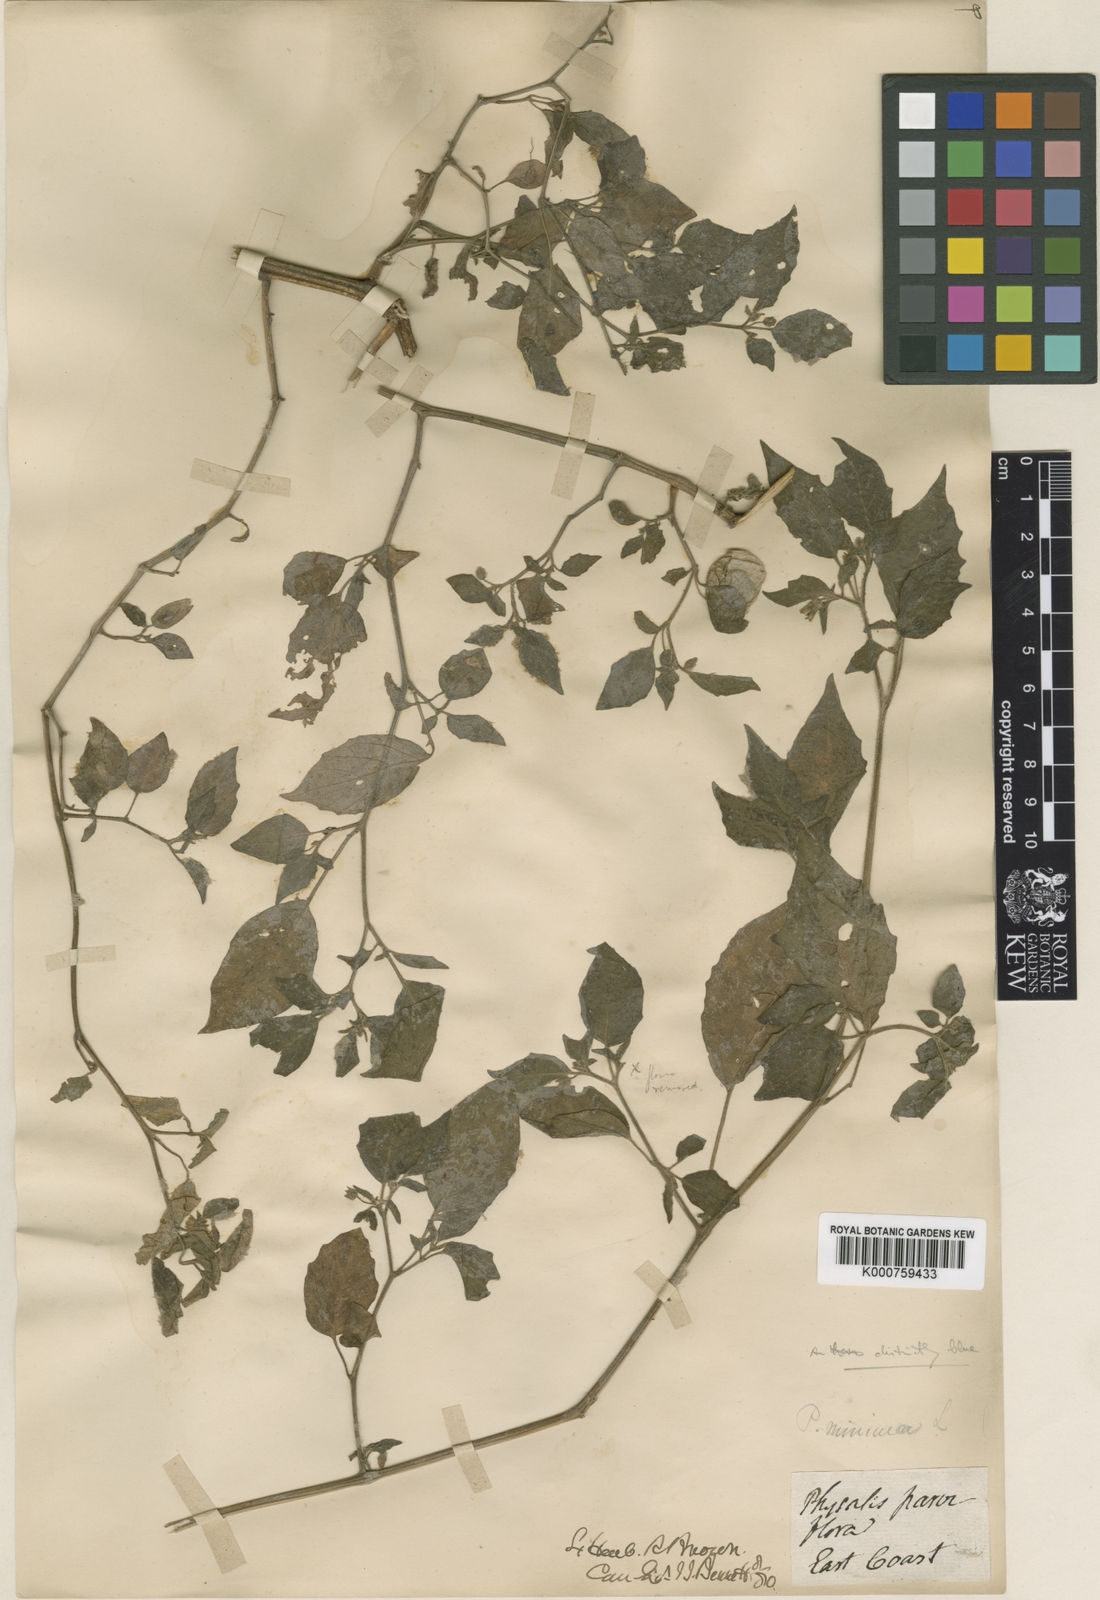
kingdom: Plantae
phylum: Tracheophyta
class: Magnoliopsida
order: Solanales
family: Solanaceae
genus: Physalis
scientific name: Physalis angulata
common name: Angular winter-cherry
